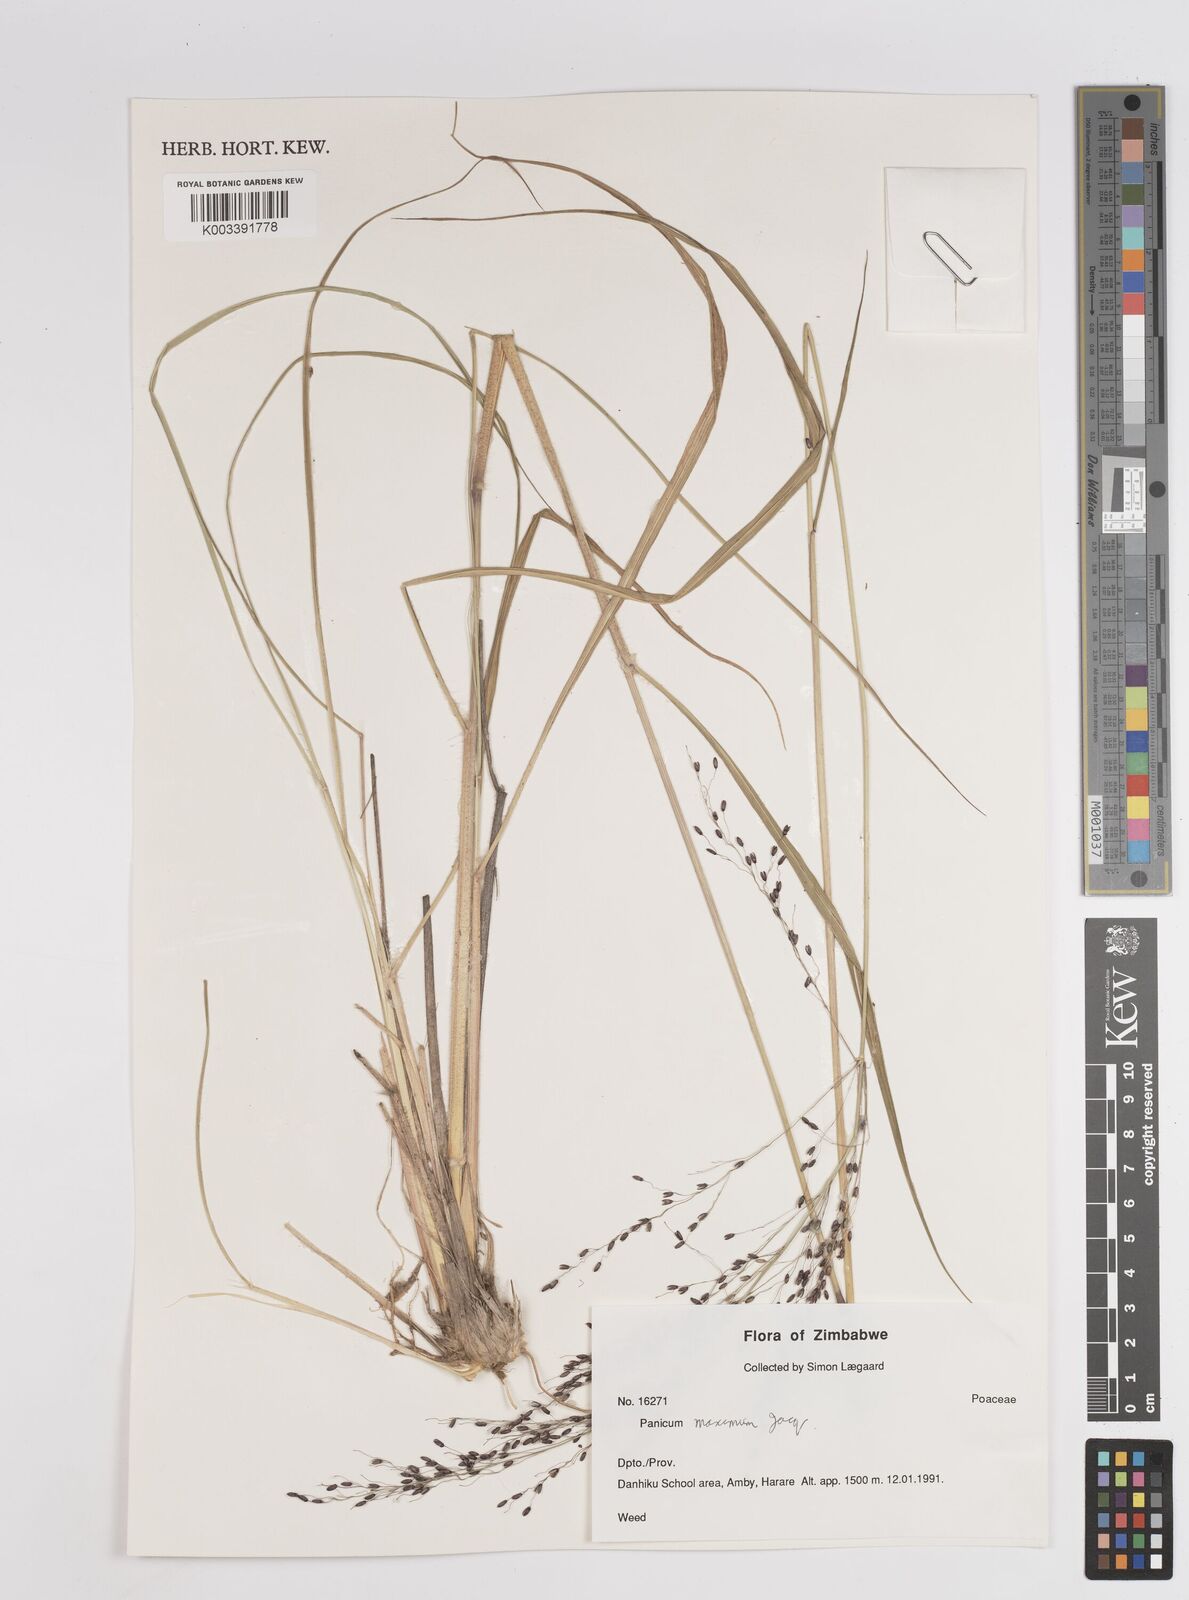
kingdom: Plantae
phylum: Tracheophyta
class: Liliopsida
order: Poales
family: Poaceae
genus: Megathyrsus
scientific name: Megathyrsus maximus
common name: Guineagrass
